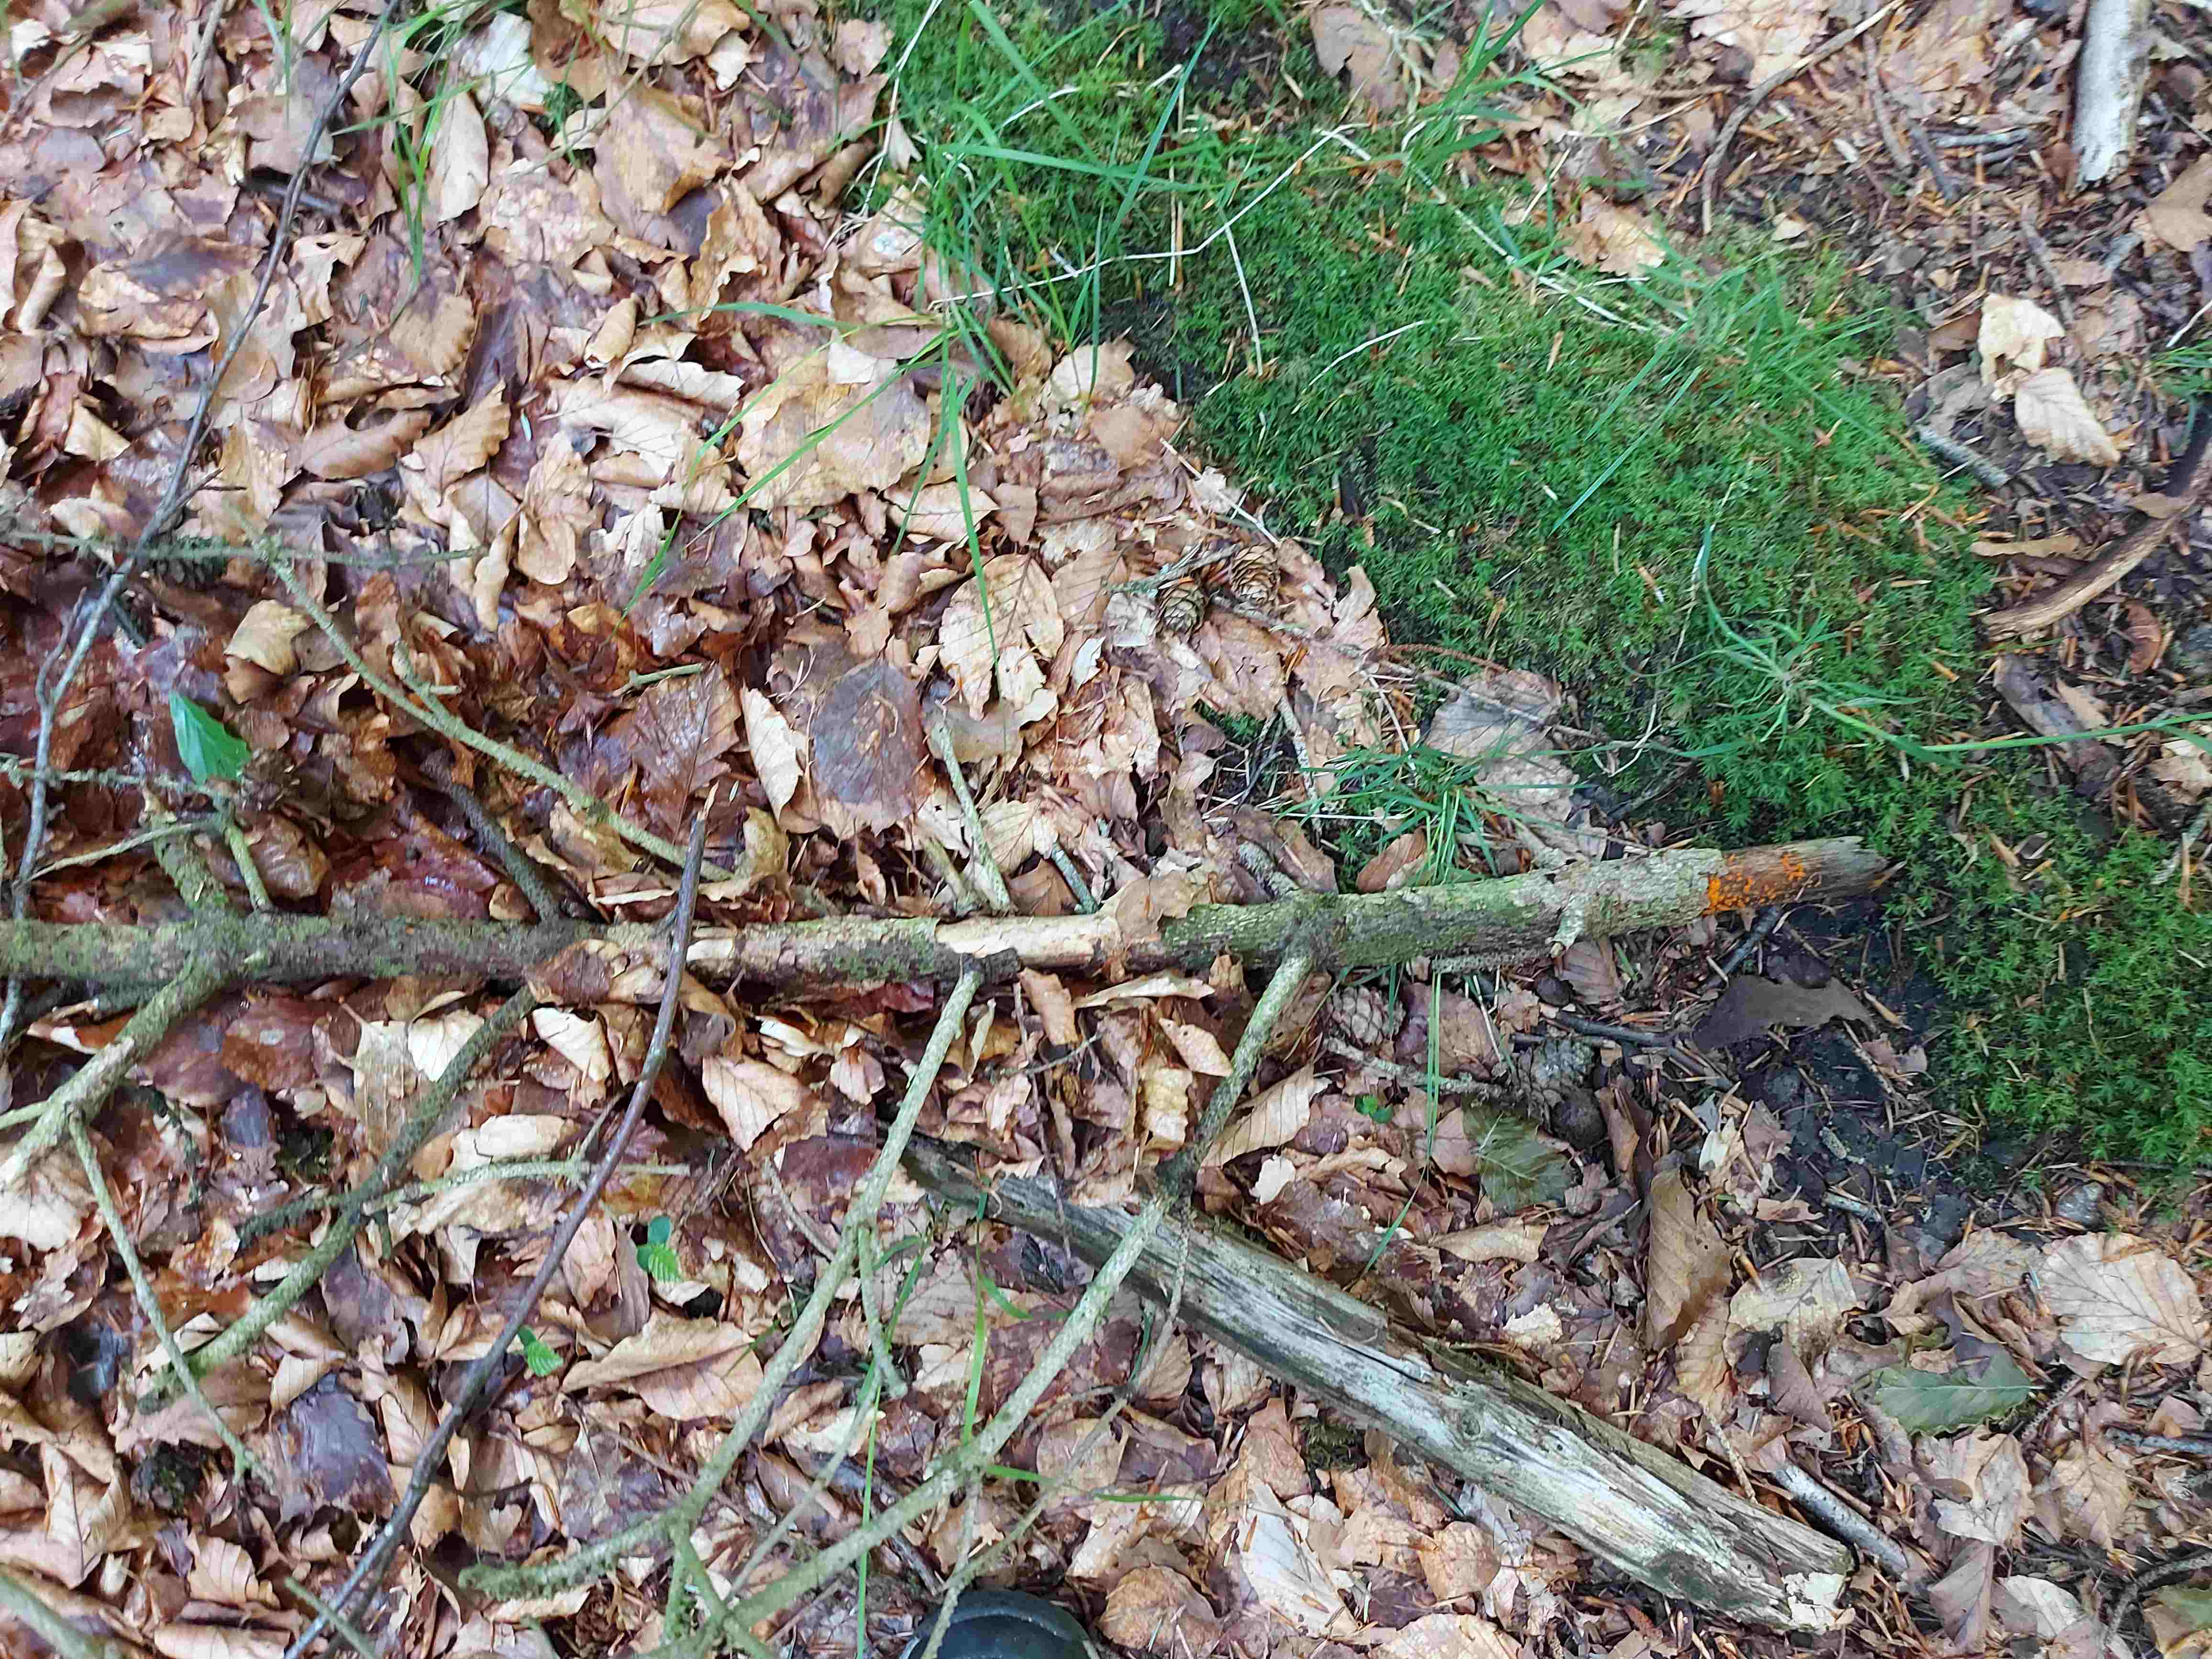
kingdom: Fungi
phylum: Basidiomycota
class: Dacrymycetes
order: Dacrymycetales
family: Dacrymycetaceae
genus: Dacrymyces
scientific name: Dacrymyces stillatus
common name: almindelig tåresvamp
